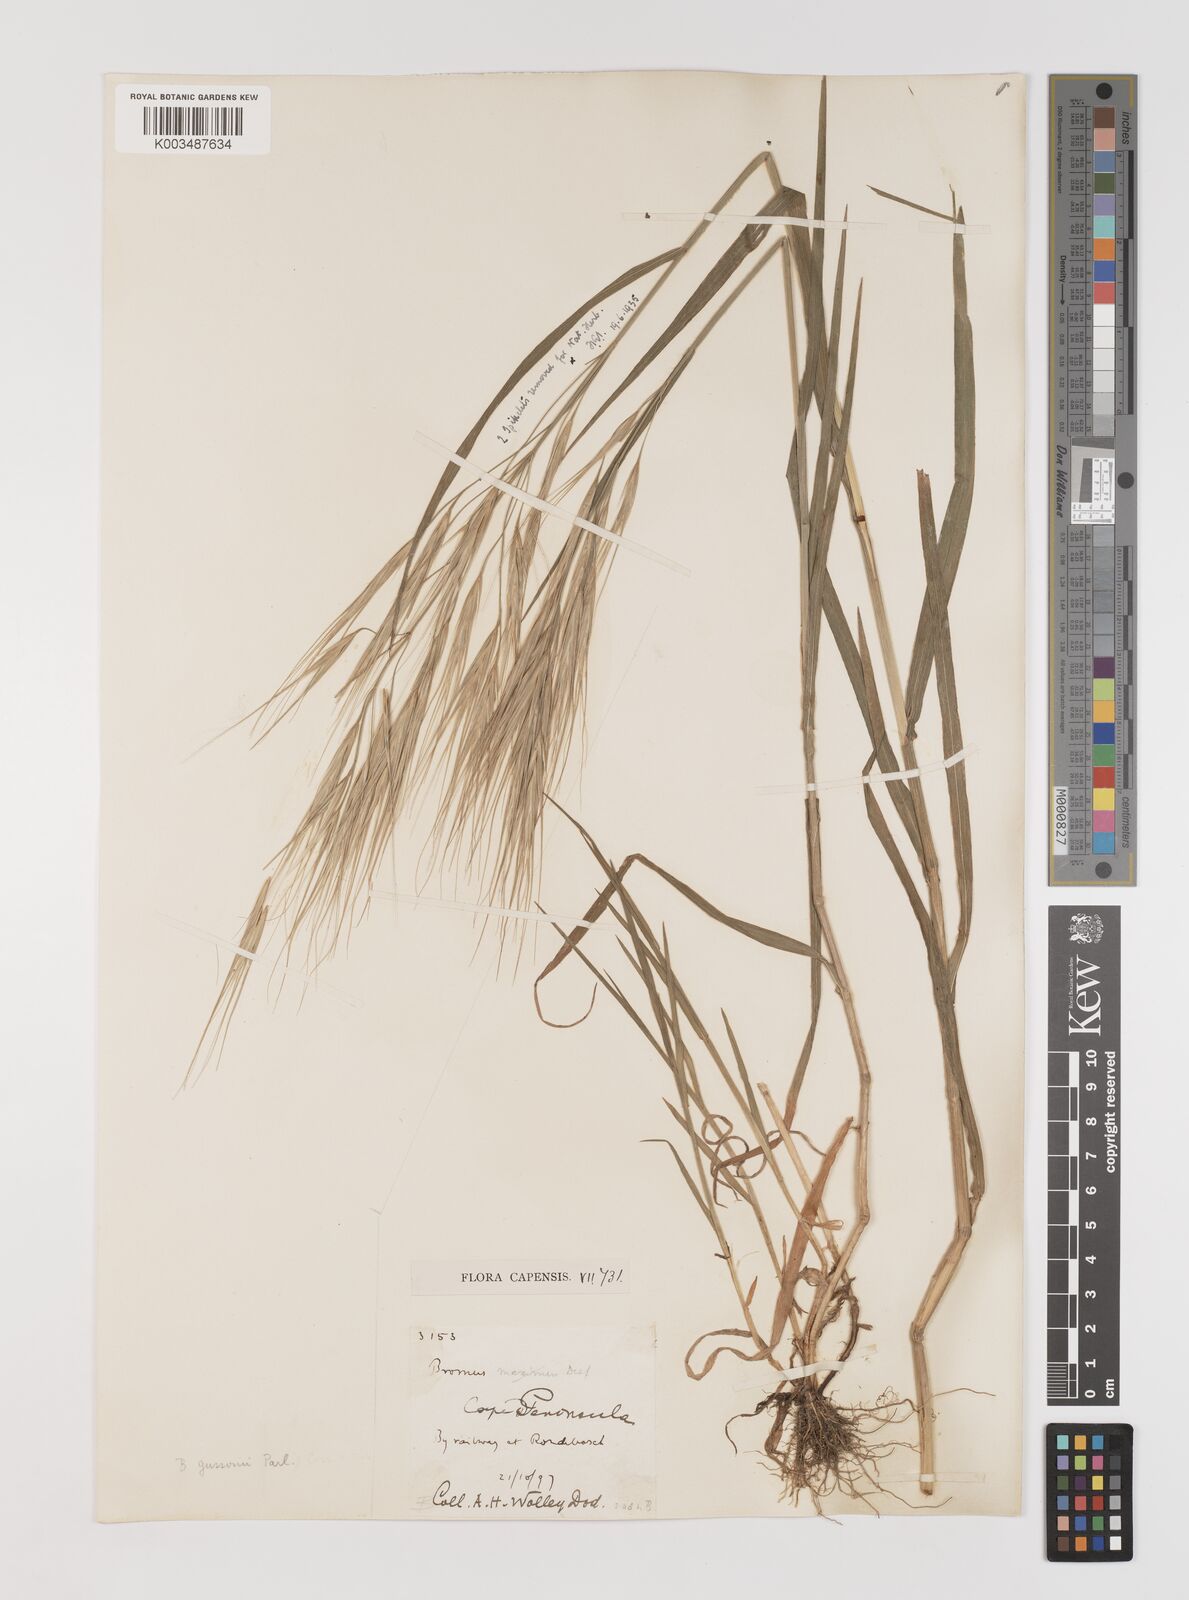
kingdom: Plantae
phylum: Tracheophyta
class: Liliopsida
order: Poales
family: Poaceae
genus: Bromus
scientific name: Bromus diandrus
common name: Ripgut brome
